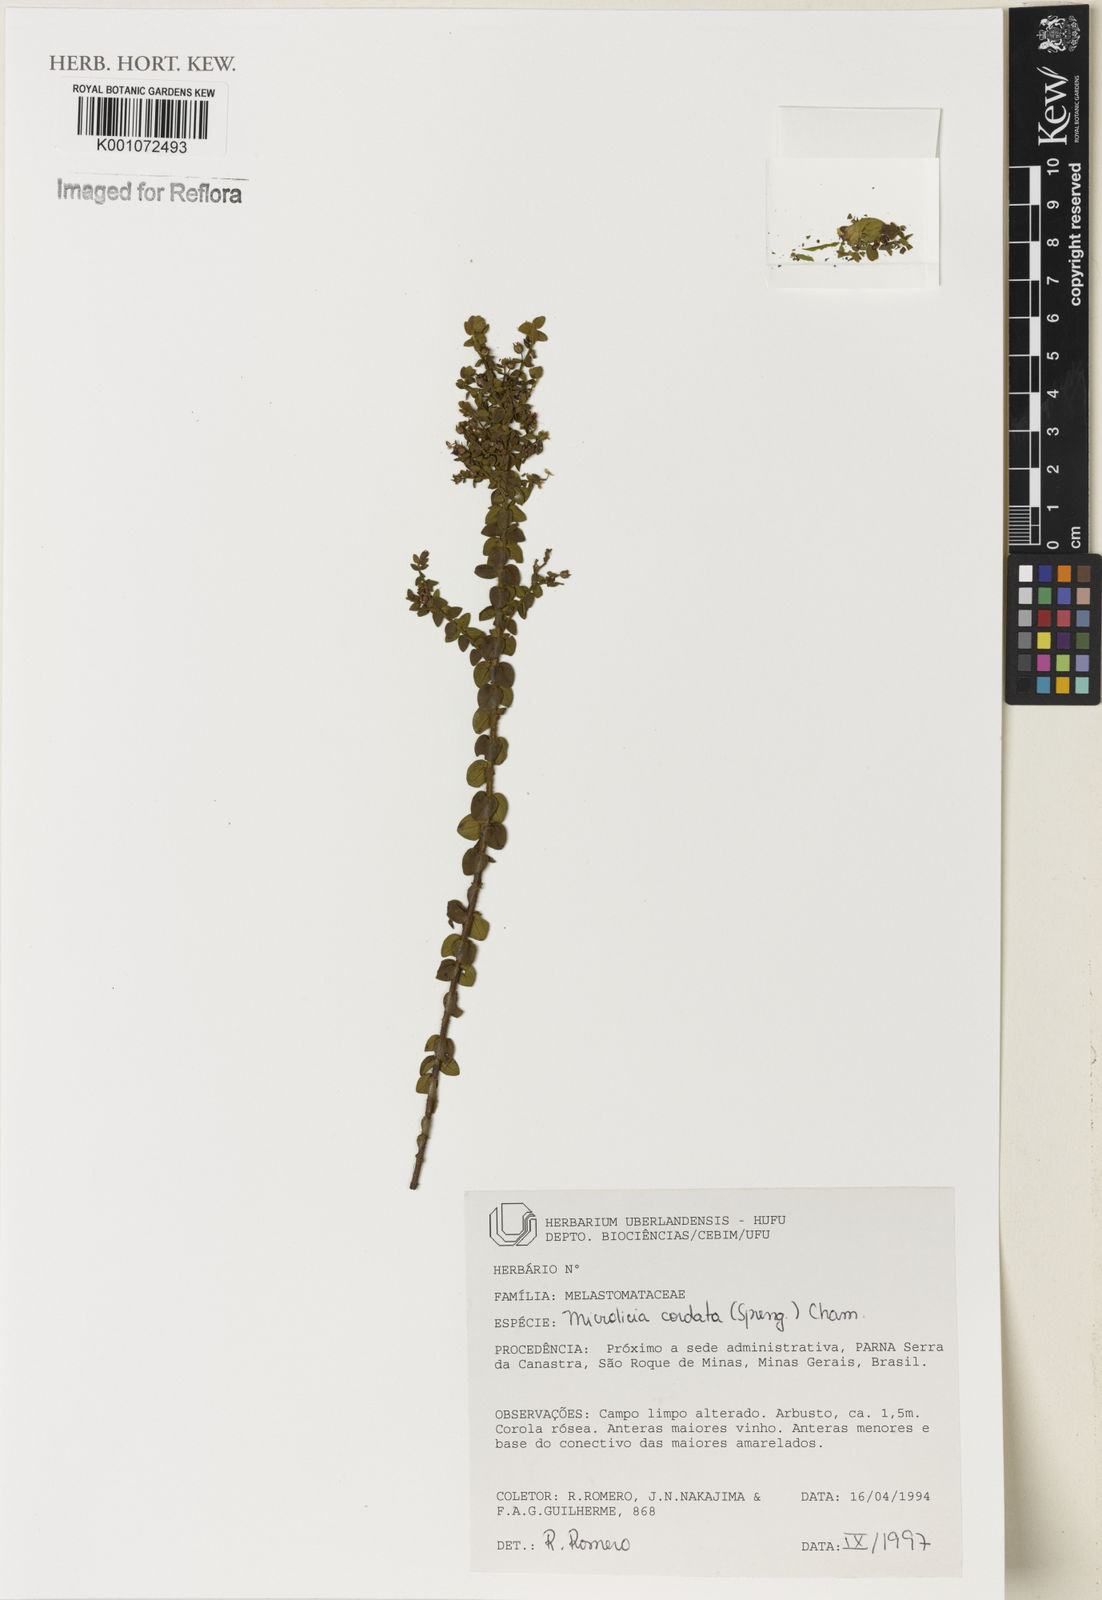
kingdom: Plantae
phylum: Tracheophyta
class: Magnoliopsida
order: Myrtales
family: Melastomataceae
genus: Microlicia
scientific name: Microlicia cordata
